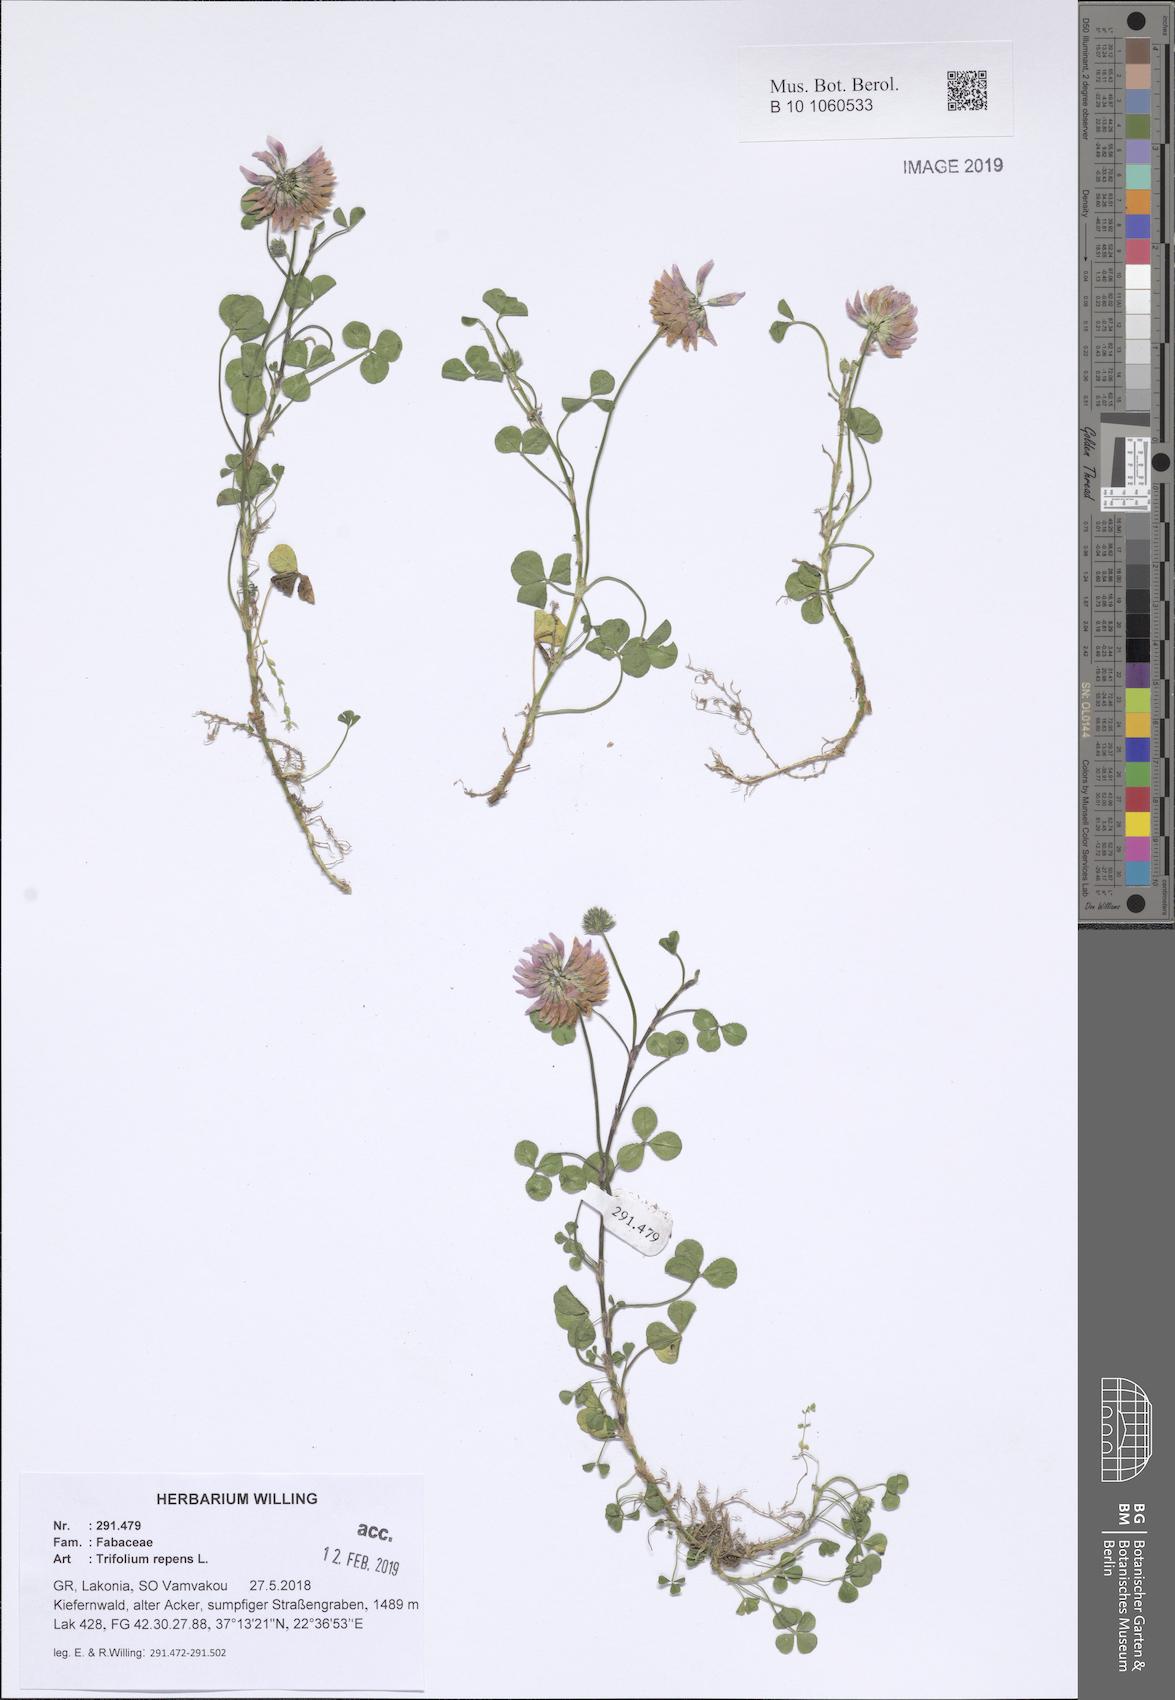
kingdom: Plantae
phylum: Tracheophyta
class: Magnoliopsida
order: Fabales
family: Fabaceae
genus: Trifolium
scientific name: Trifolium repens
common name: White clover
